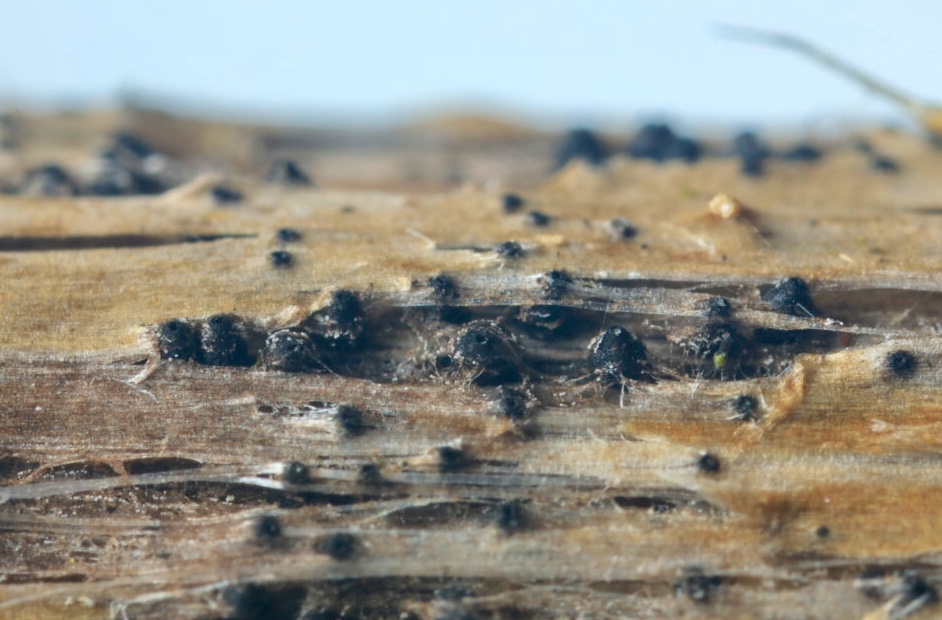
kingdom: Fungi
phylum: Ascomycota
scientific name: Ascomycota
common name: sæksvampe
